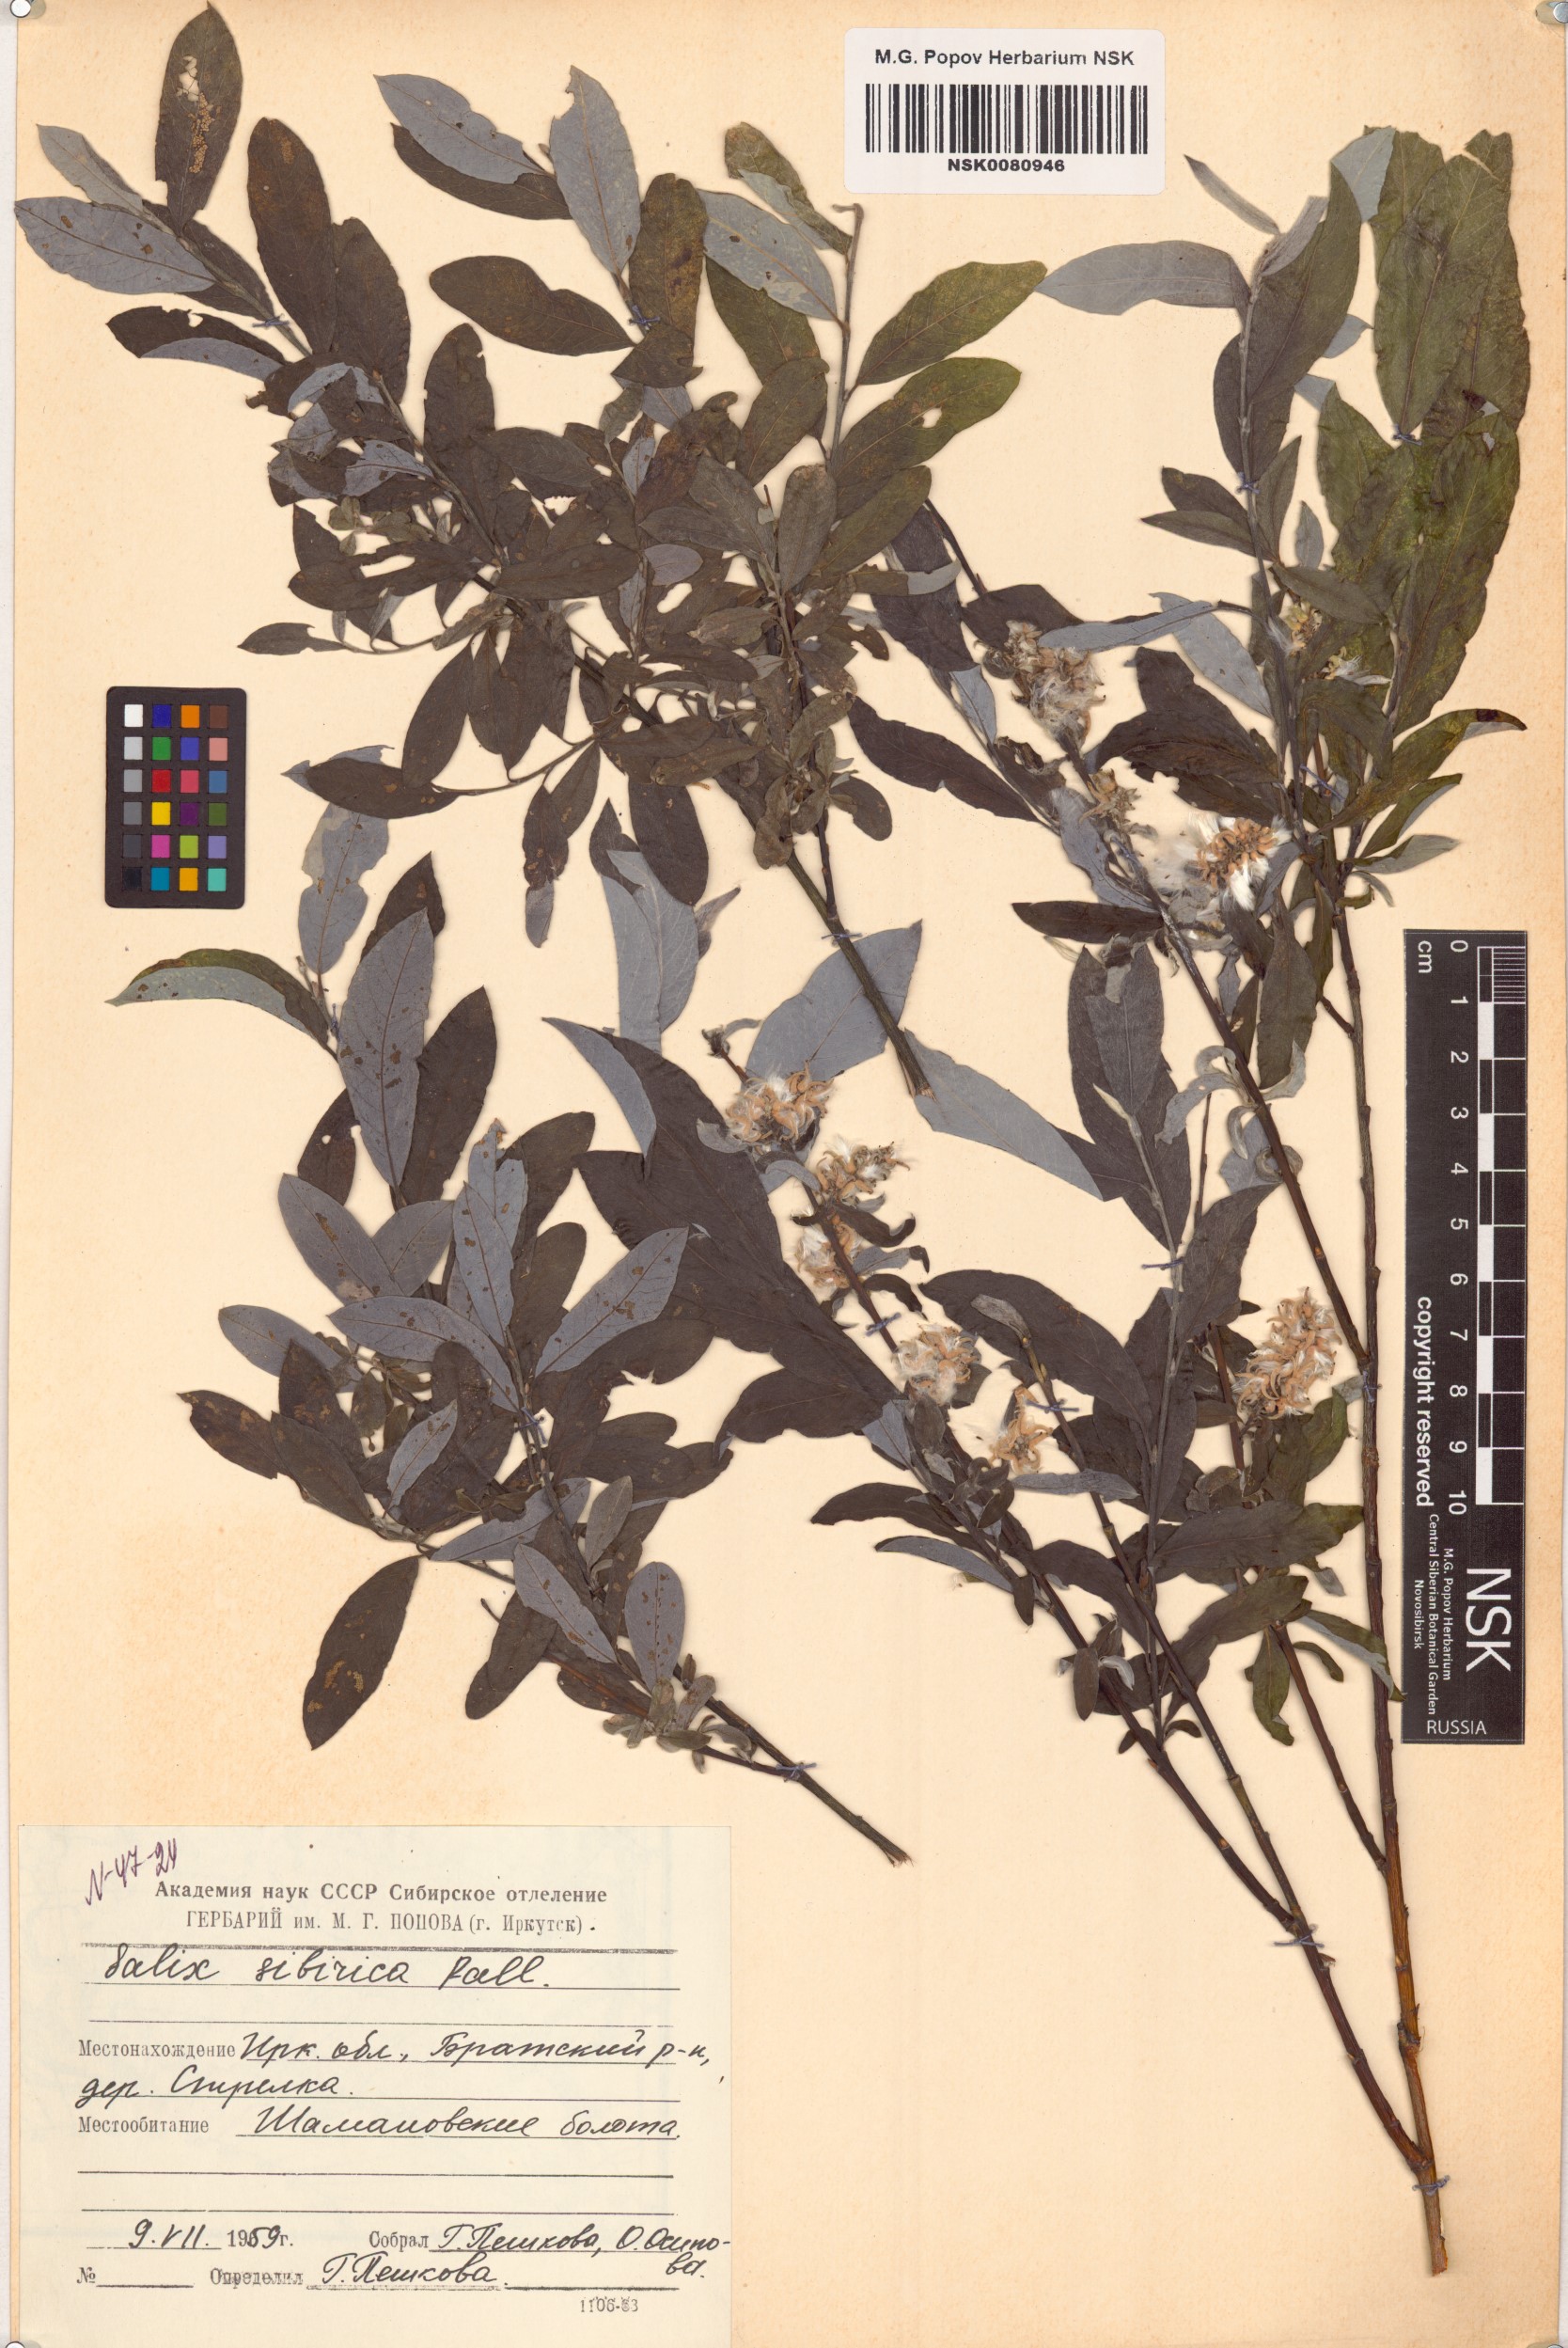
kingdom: Plantae
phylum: Tracheophyta
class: Magnoliopsida
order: Malpighiales
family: Salicaceae
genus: Salix
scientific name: Salix rosmarinifolia
